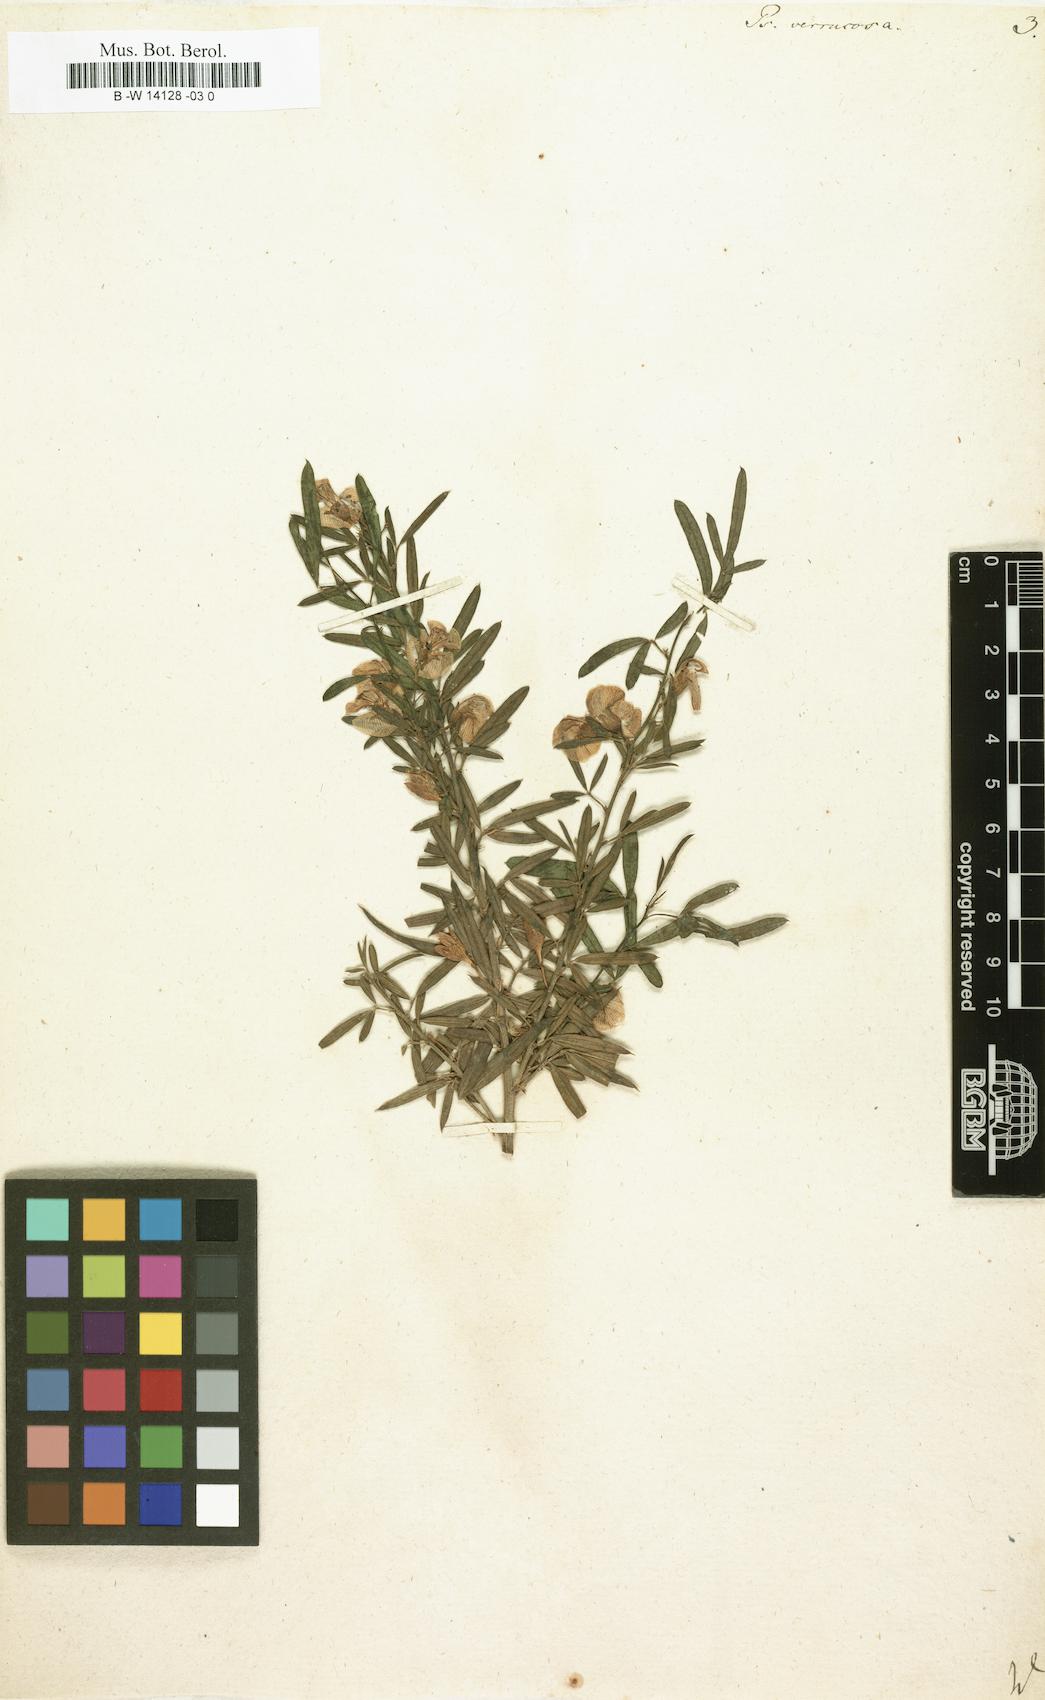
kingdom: Plantae
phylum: Tracheophyta
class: Magnoliopsida
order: Fabales
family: Fabaceae
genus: Psoralea
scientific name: Psoralea verrucosa
